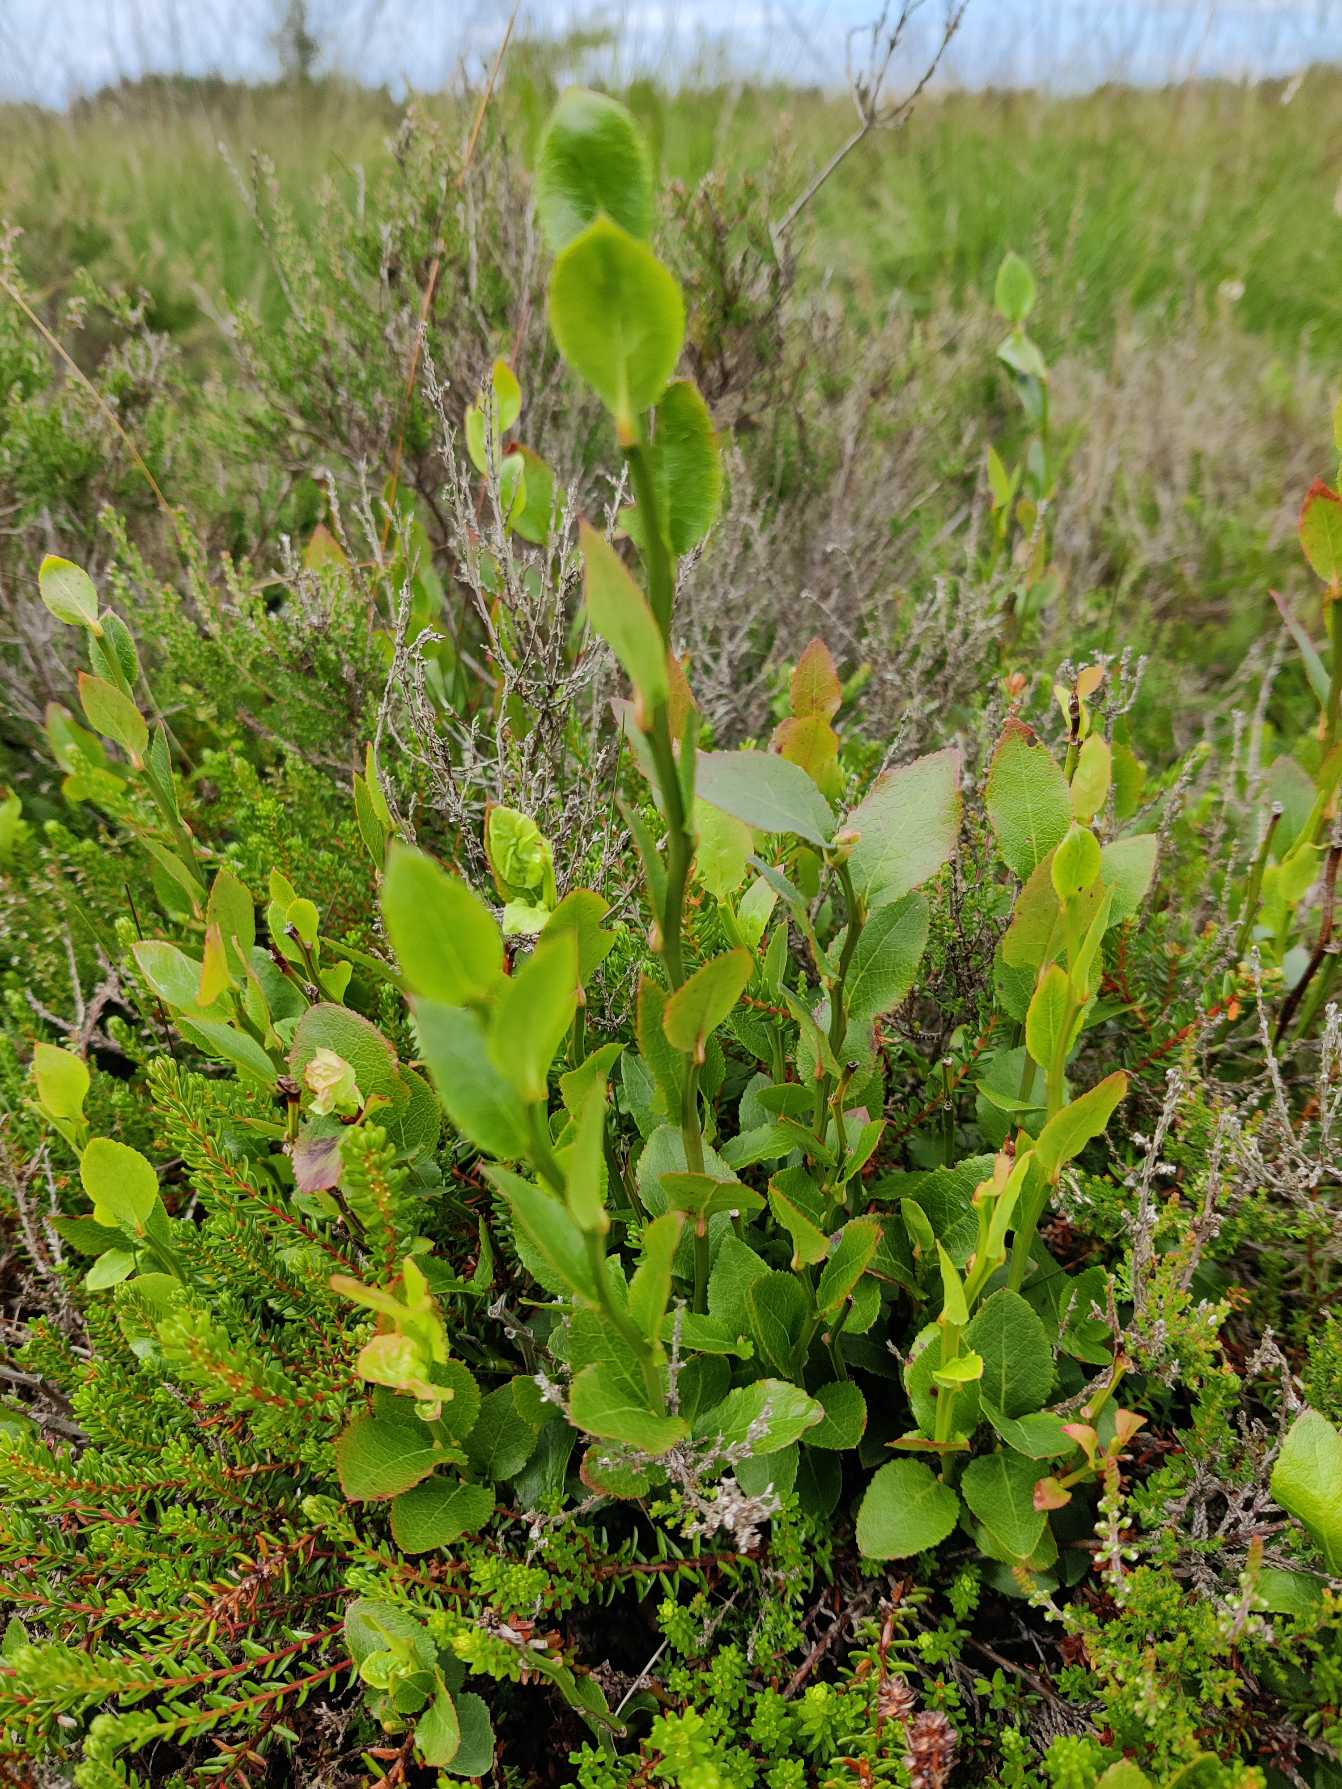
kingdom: Plantae
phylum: Tracheophyta
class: Magnoliopsida
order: Ericales
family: Ericaceae
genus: Vaccinium
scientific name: Vaccinium myrtillus
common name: Blåbær
